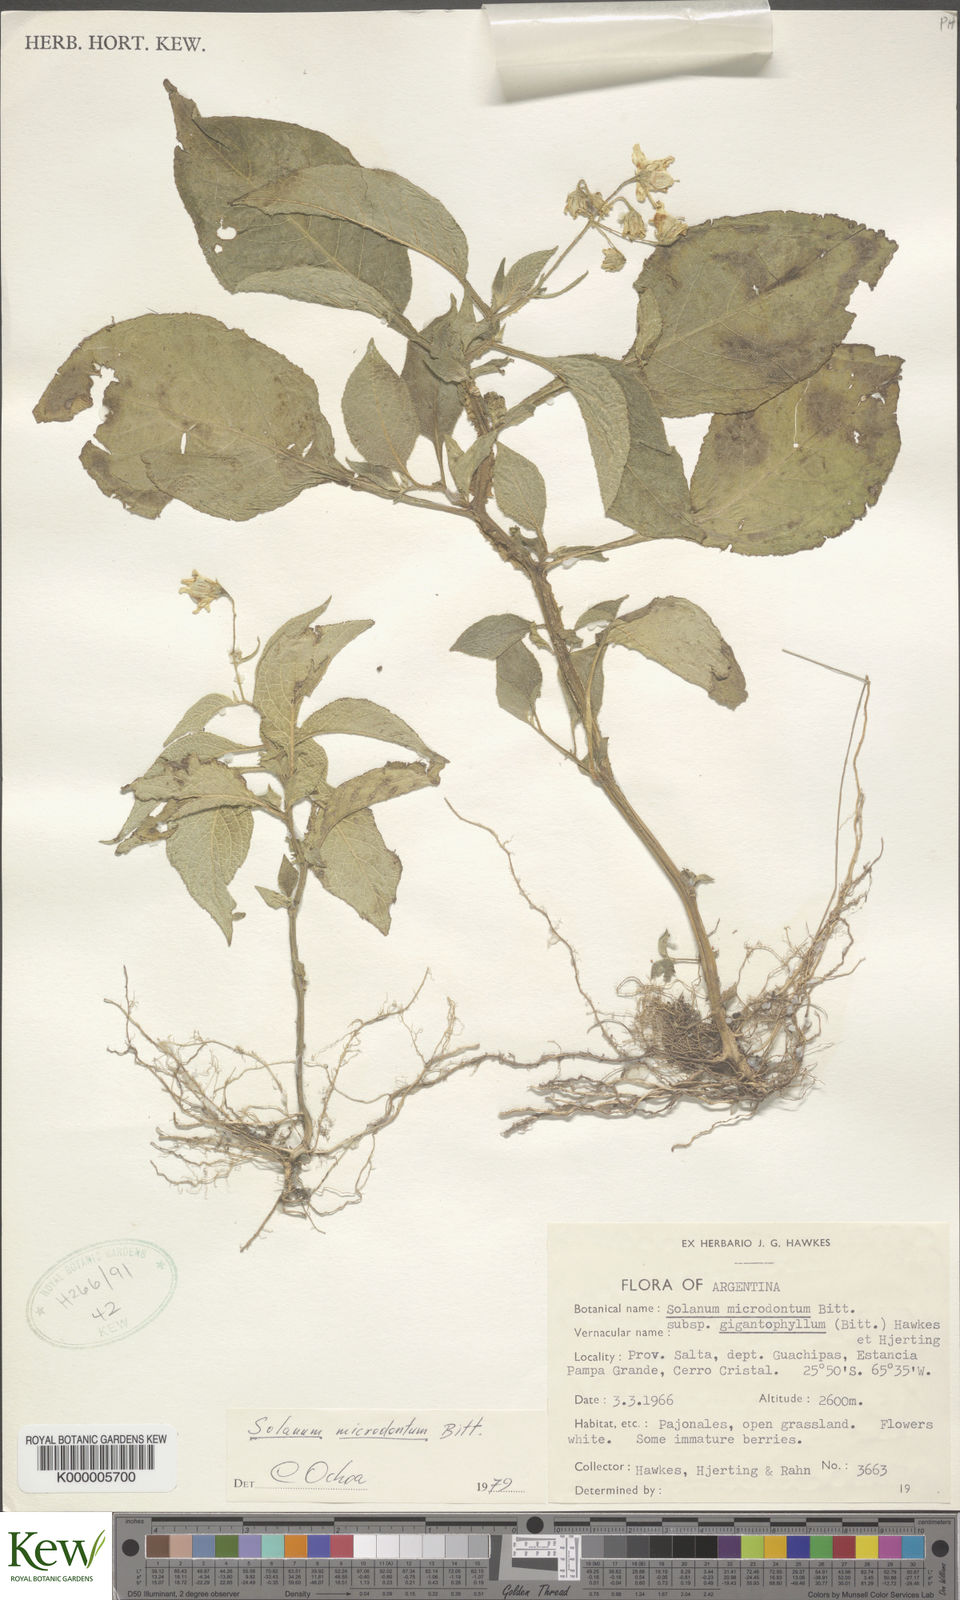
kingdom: Plantae
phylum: Tracheophyta
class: Magnoliopsida
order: Solanales
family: Solanaceae
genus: Solanum
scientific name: Solanum microdontum
